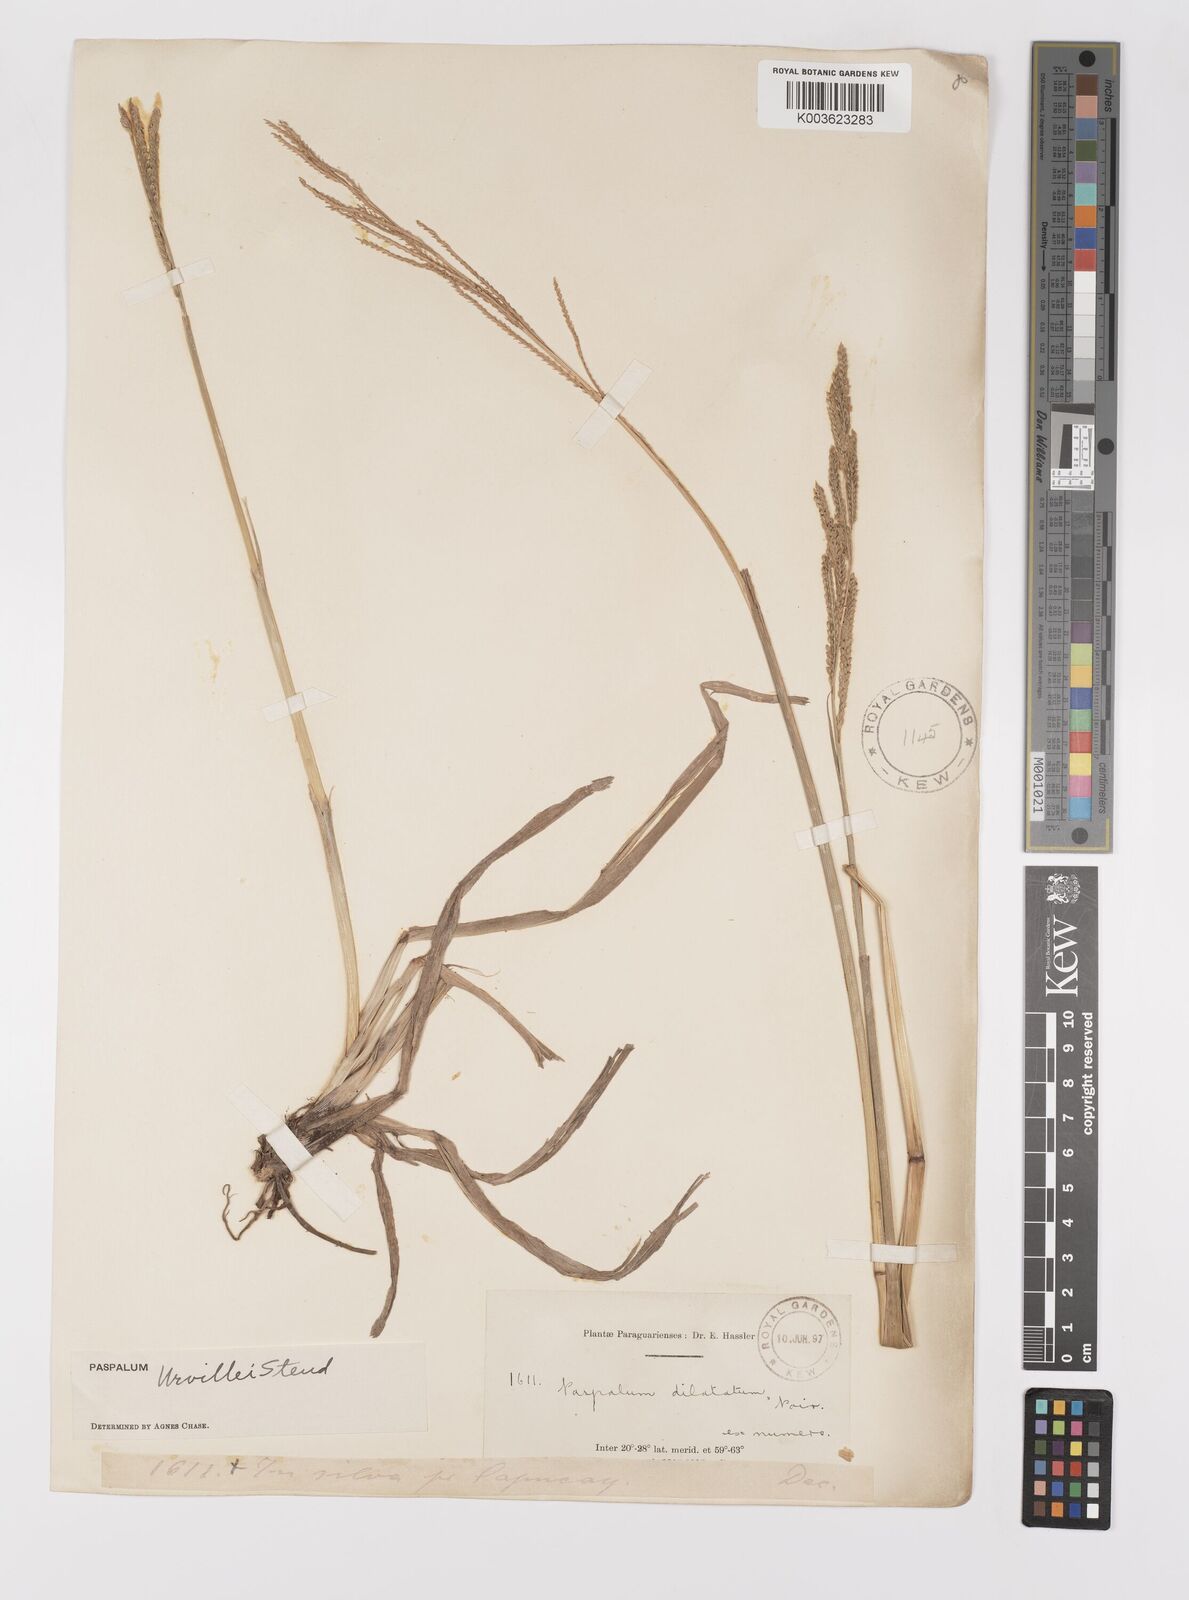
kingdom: Plantae
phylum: Tracheophyta
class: Liliopsida
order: Poales
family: Poaceae
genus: Paspalum
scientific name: Paspalum urvillei
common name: Vasey's grass
